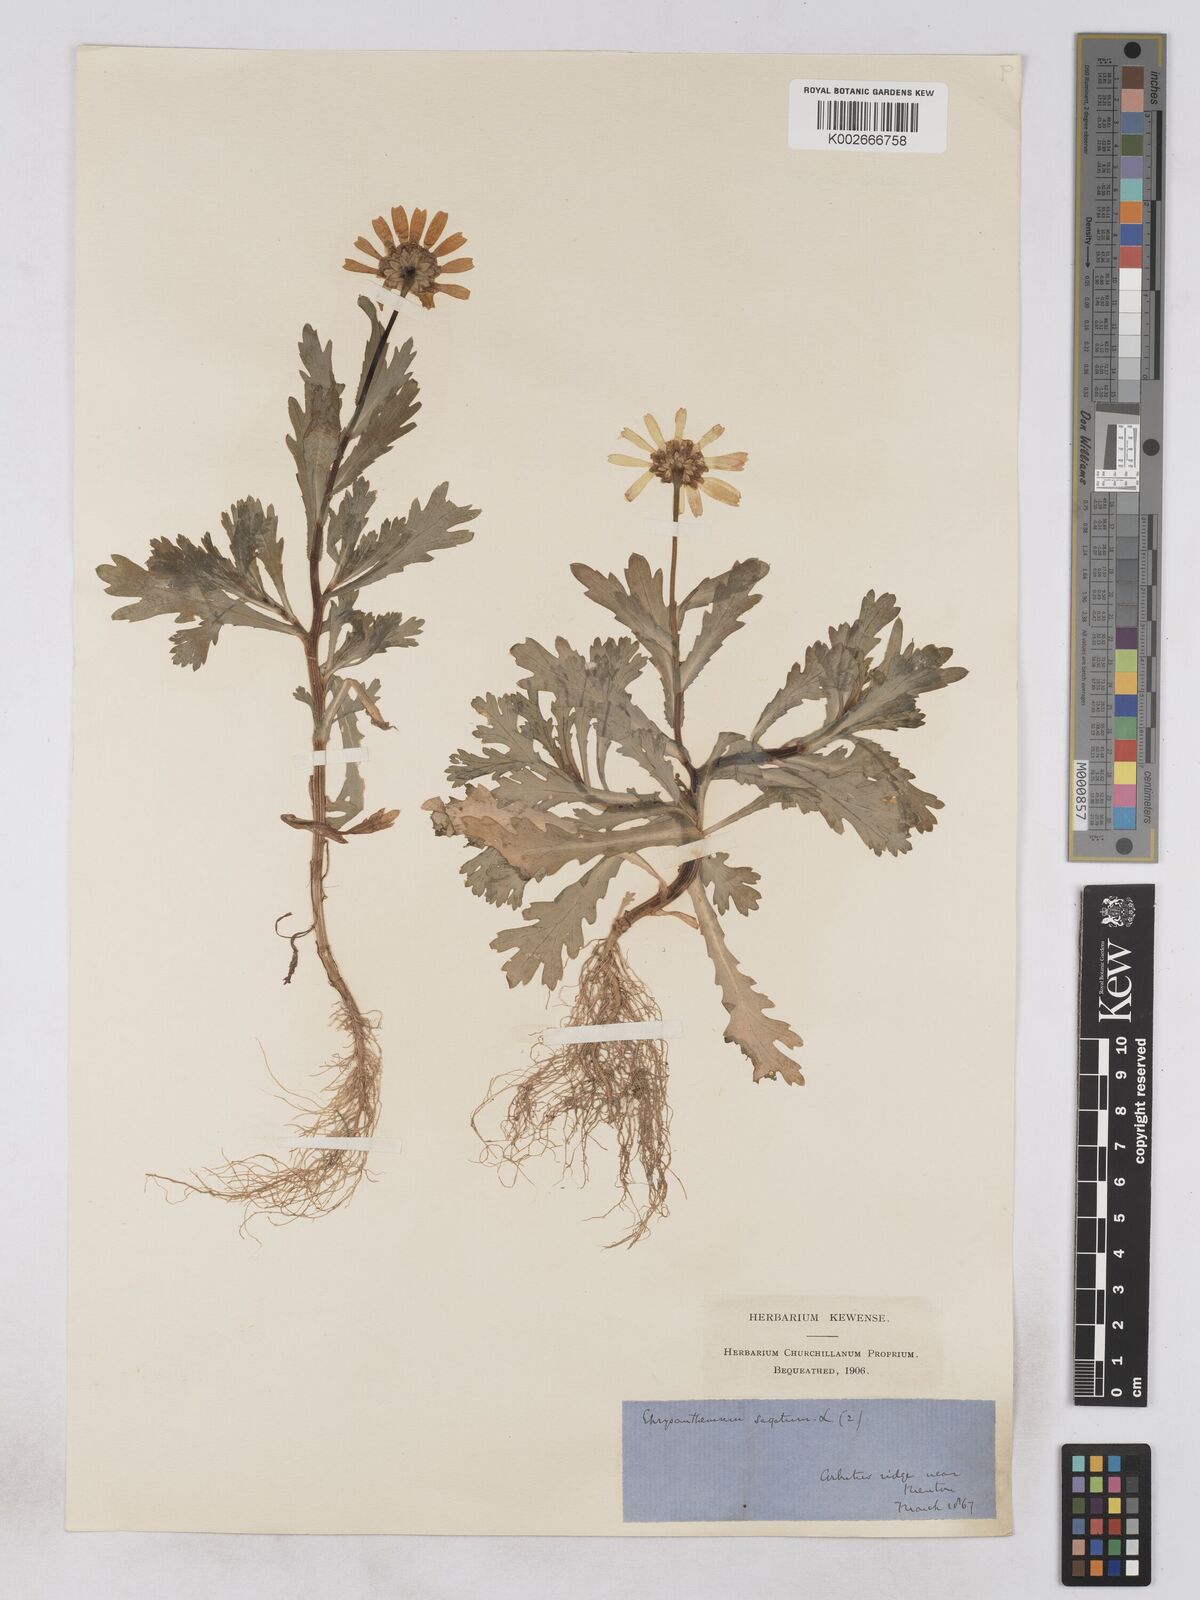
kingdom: Plantae
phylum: Tracheophyta
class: Magnoliopsida
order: Asterales
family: Asteraceae
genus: Glebionis
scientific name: Glebionis segetum
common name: Corndaisy
